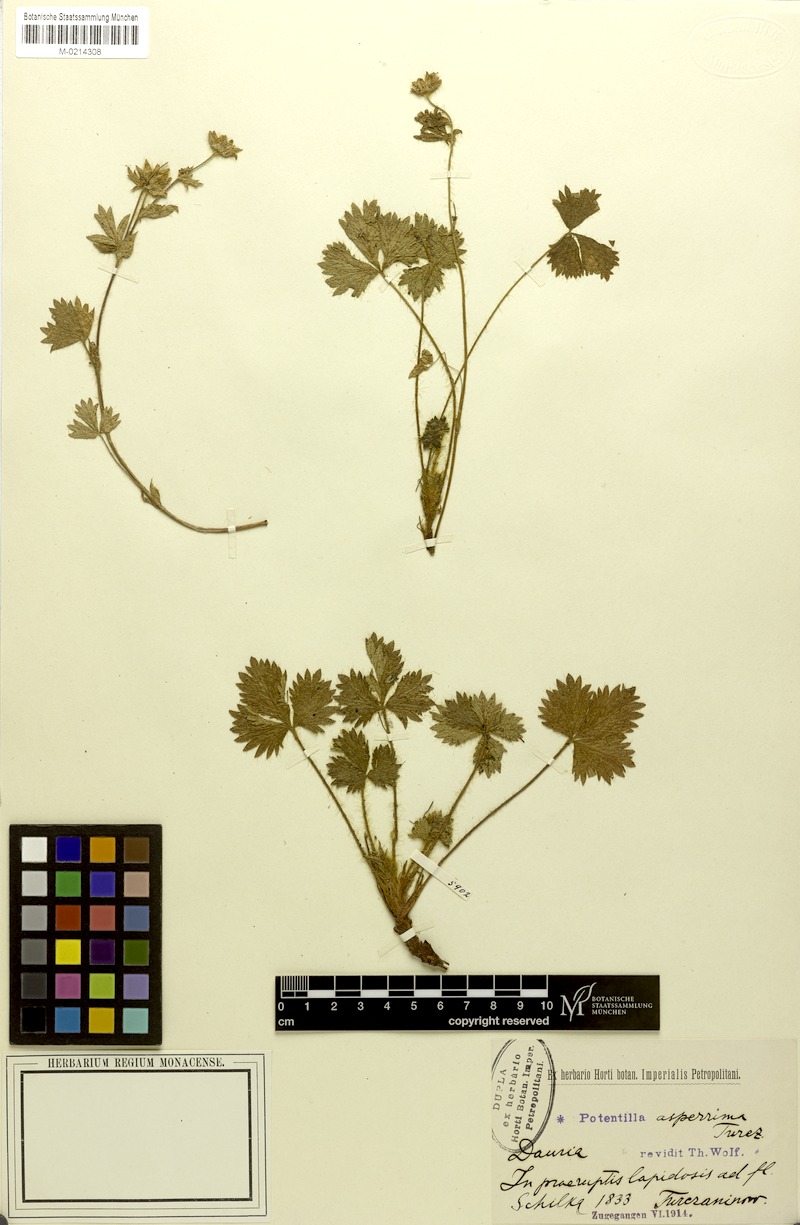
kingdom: Plantae
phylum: Tracheophyta
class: Magnoliopsida
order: Rosales
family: Rosaceae
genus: Potentilla
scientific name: Potentilla asperrima
